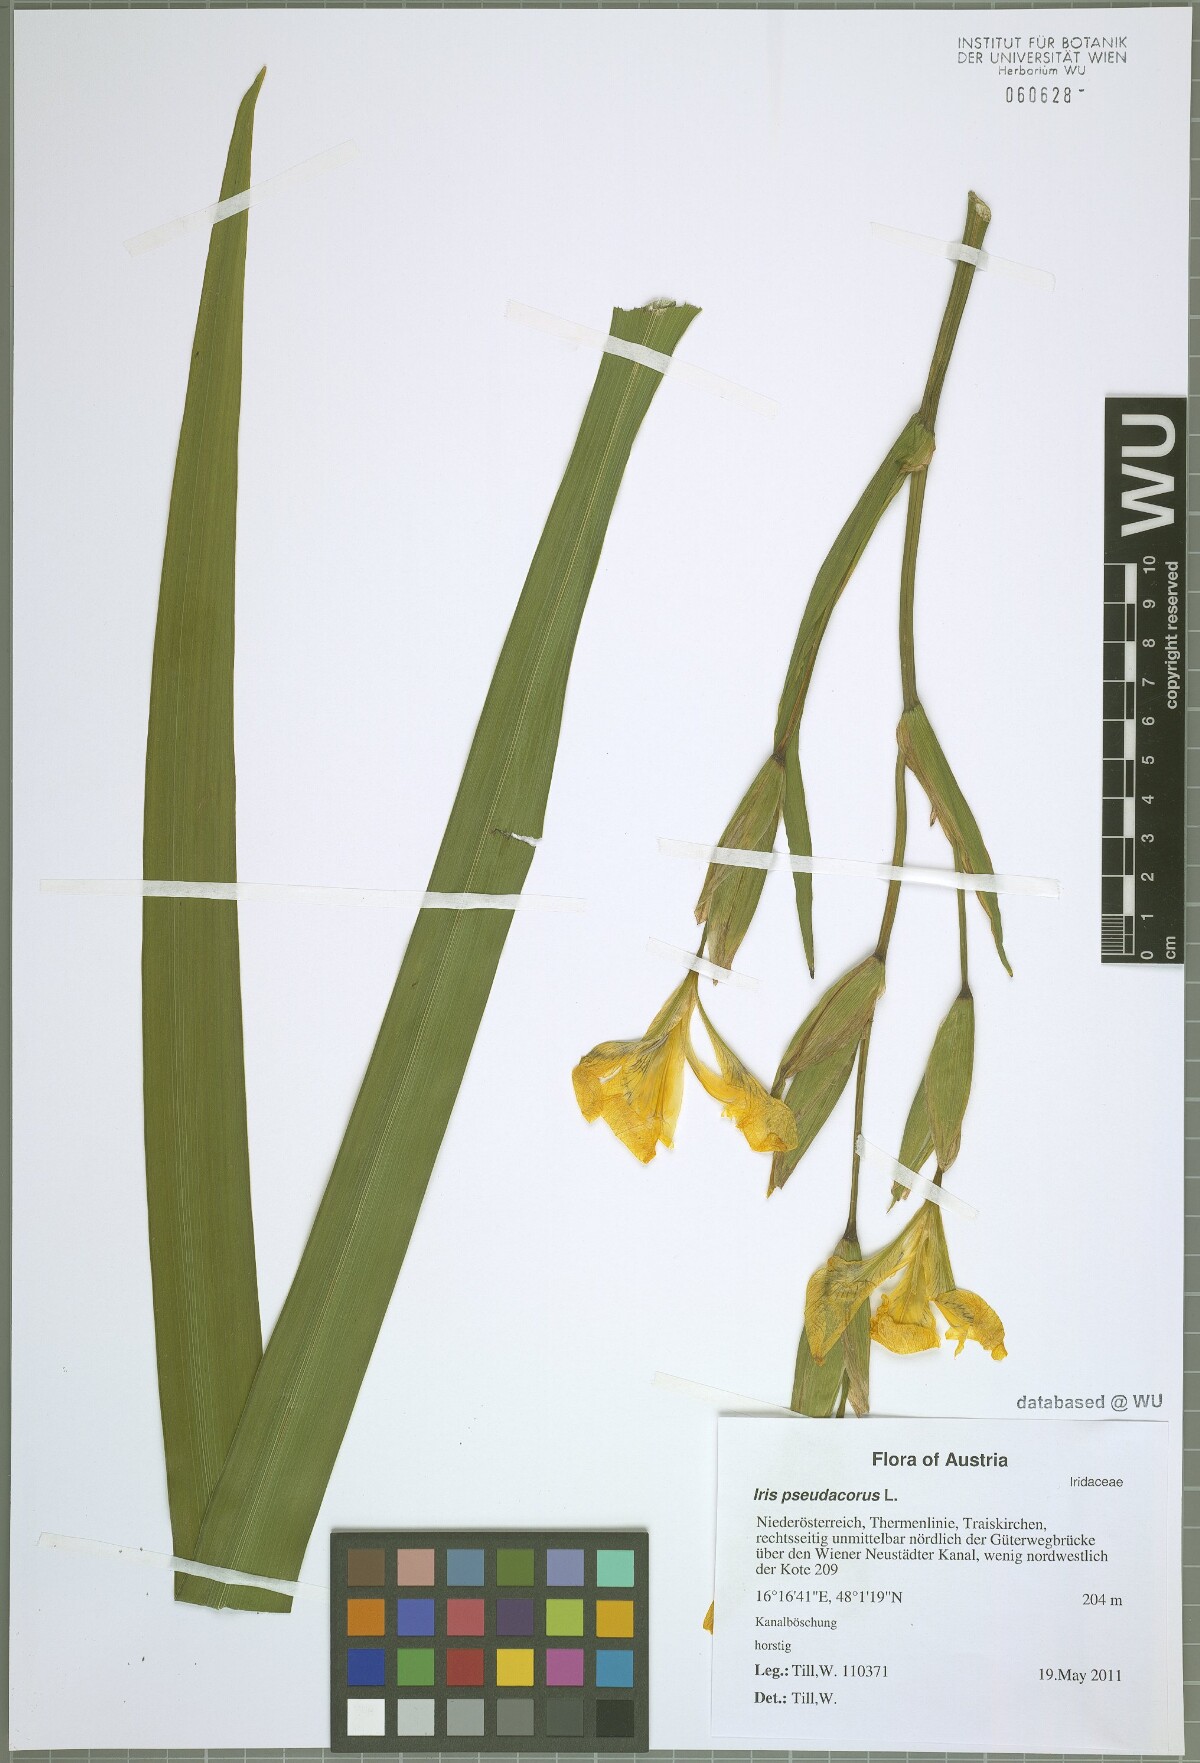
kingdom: Plantae
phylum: Tracheophyta
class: Liliopsida
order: Asparagales
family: Iridaceae
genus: Iris
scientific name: Iris pseudacorus
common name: Yellow flag
